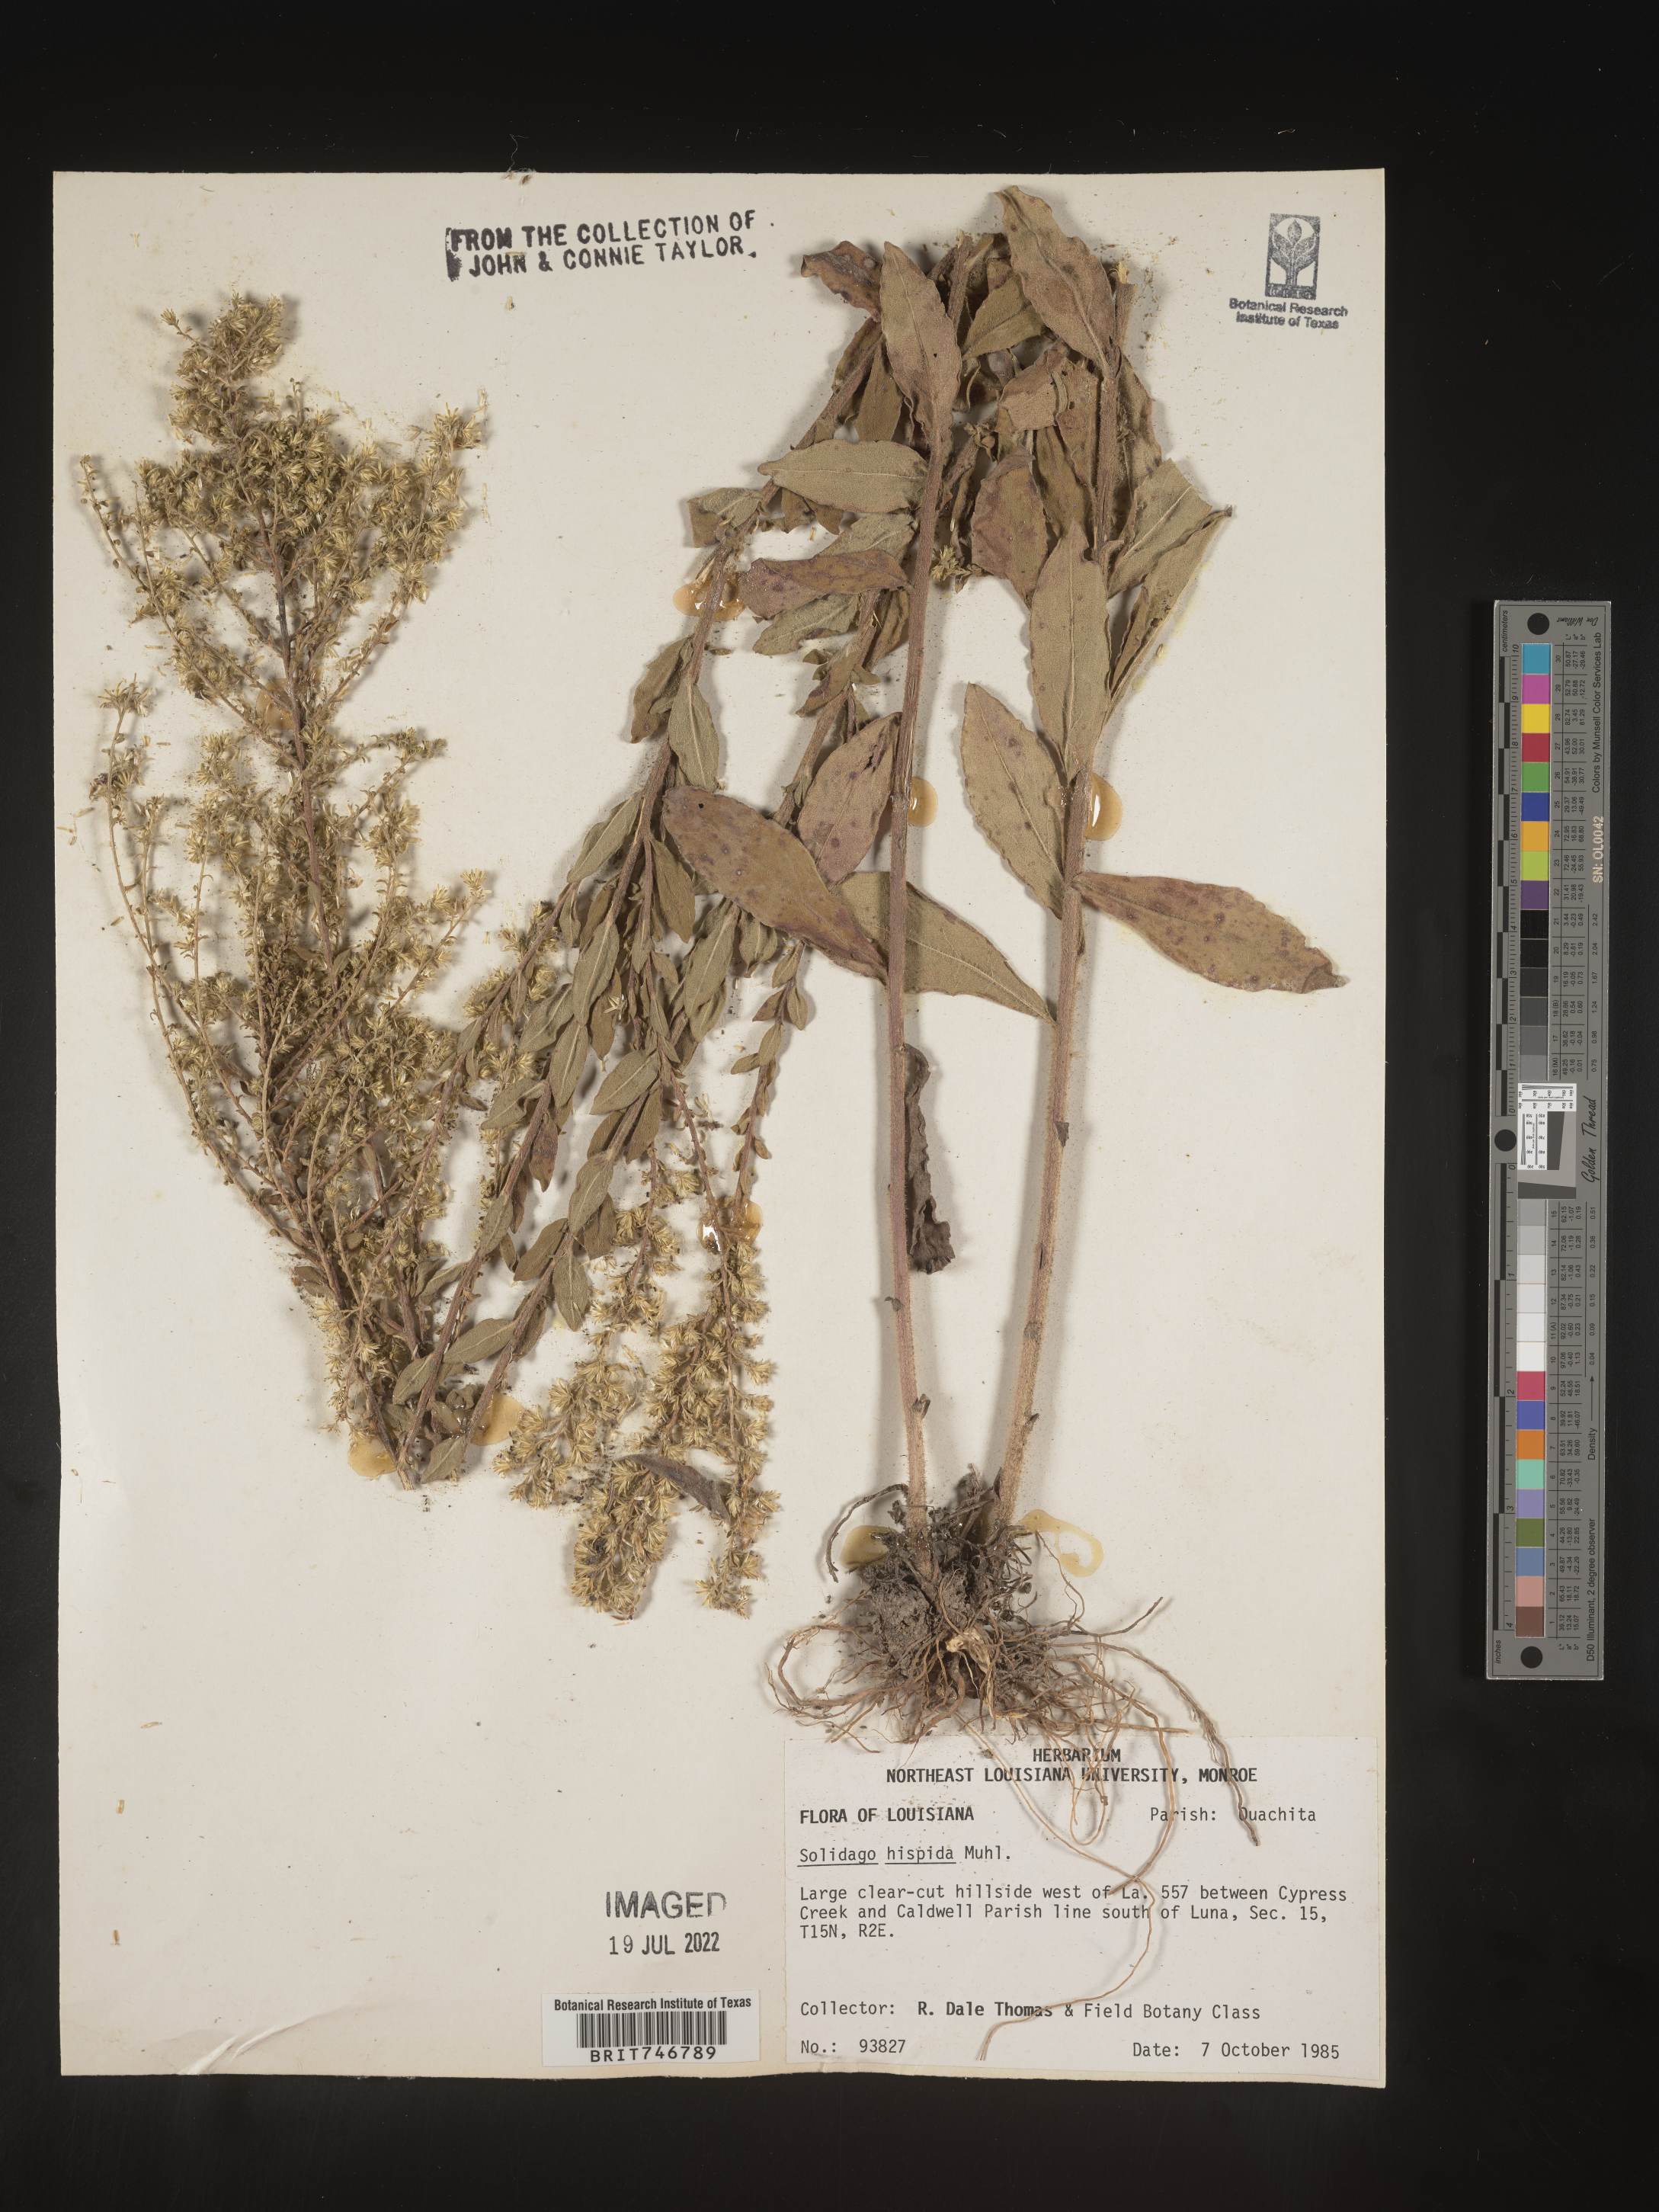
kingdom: Plantae
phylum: Tracheophyta
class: Magnoliopsida
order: Asterales
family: Asteraceae
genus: Solidago
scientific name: Solidago hispida
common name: Hairy goldenrod
